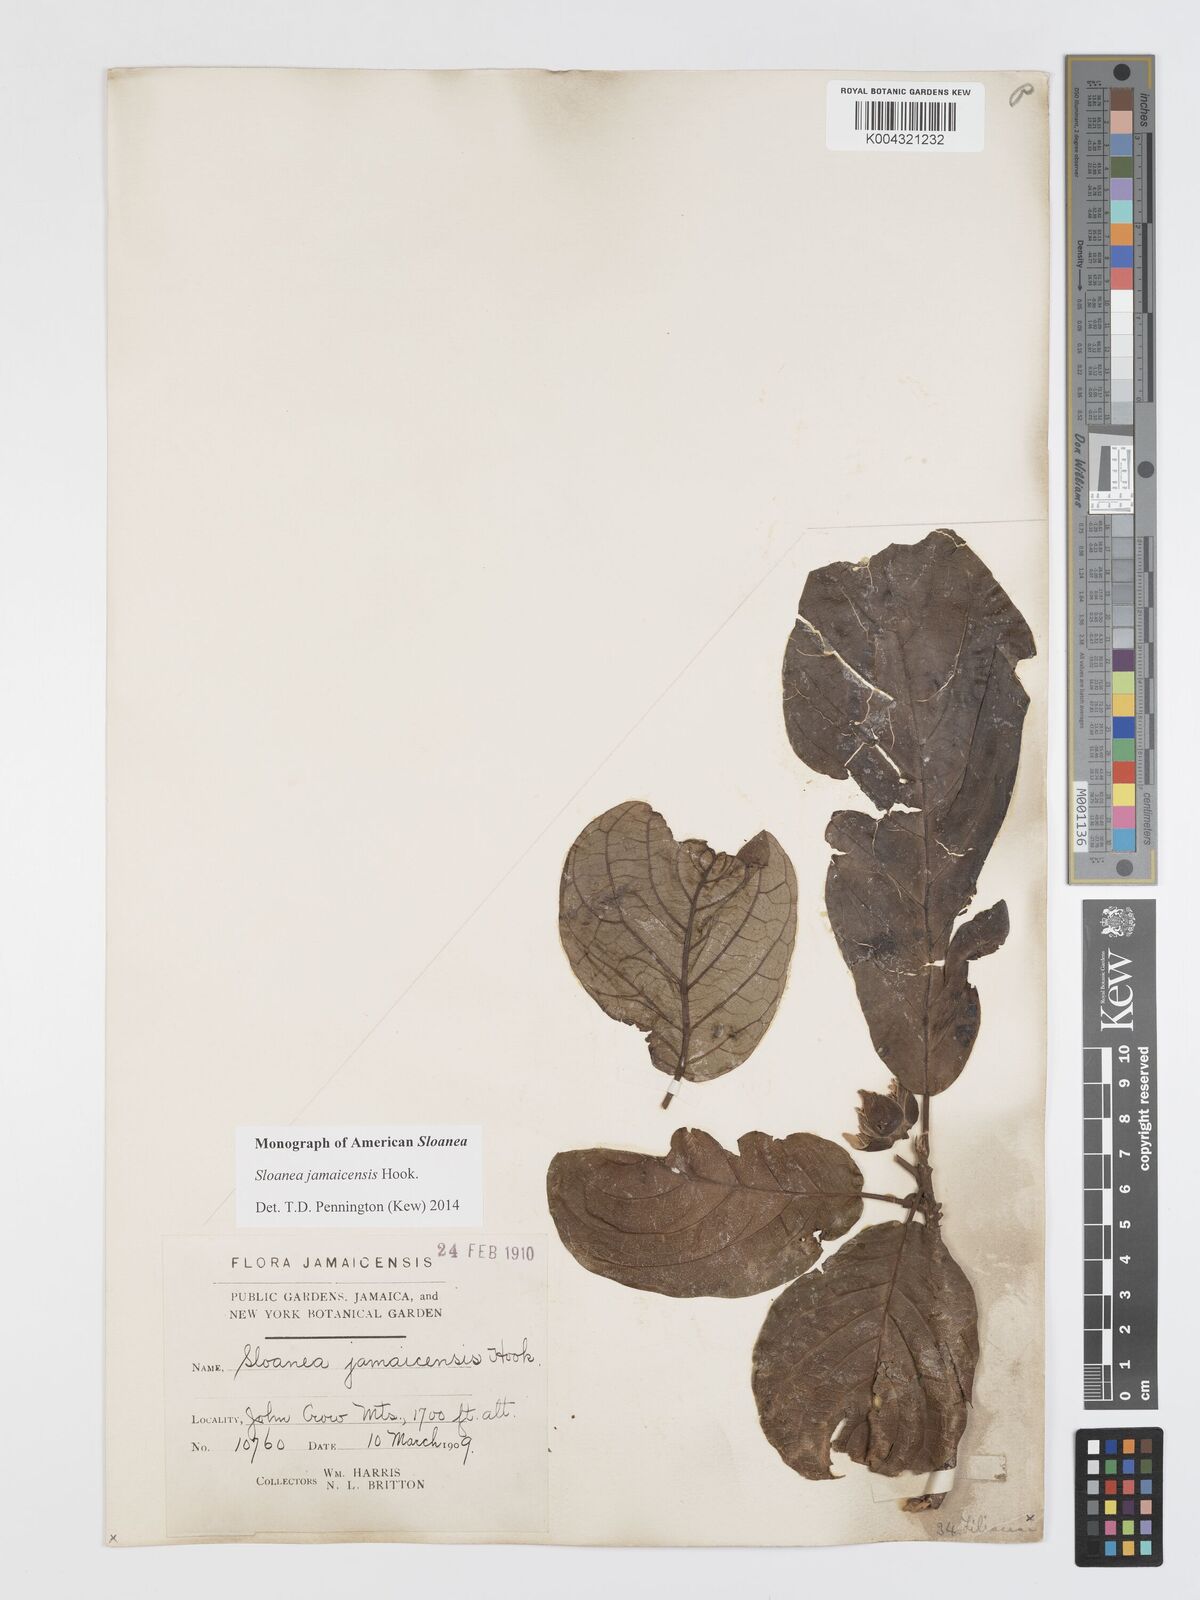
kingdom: Plantae
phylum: Tracheophyta
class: Magnoliopsida
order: Oxalidales
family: Elaeocarpaceae
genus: Sloanea
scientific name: Sloanea jamaicensis
